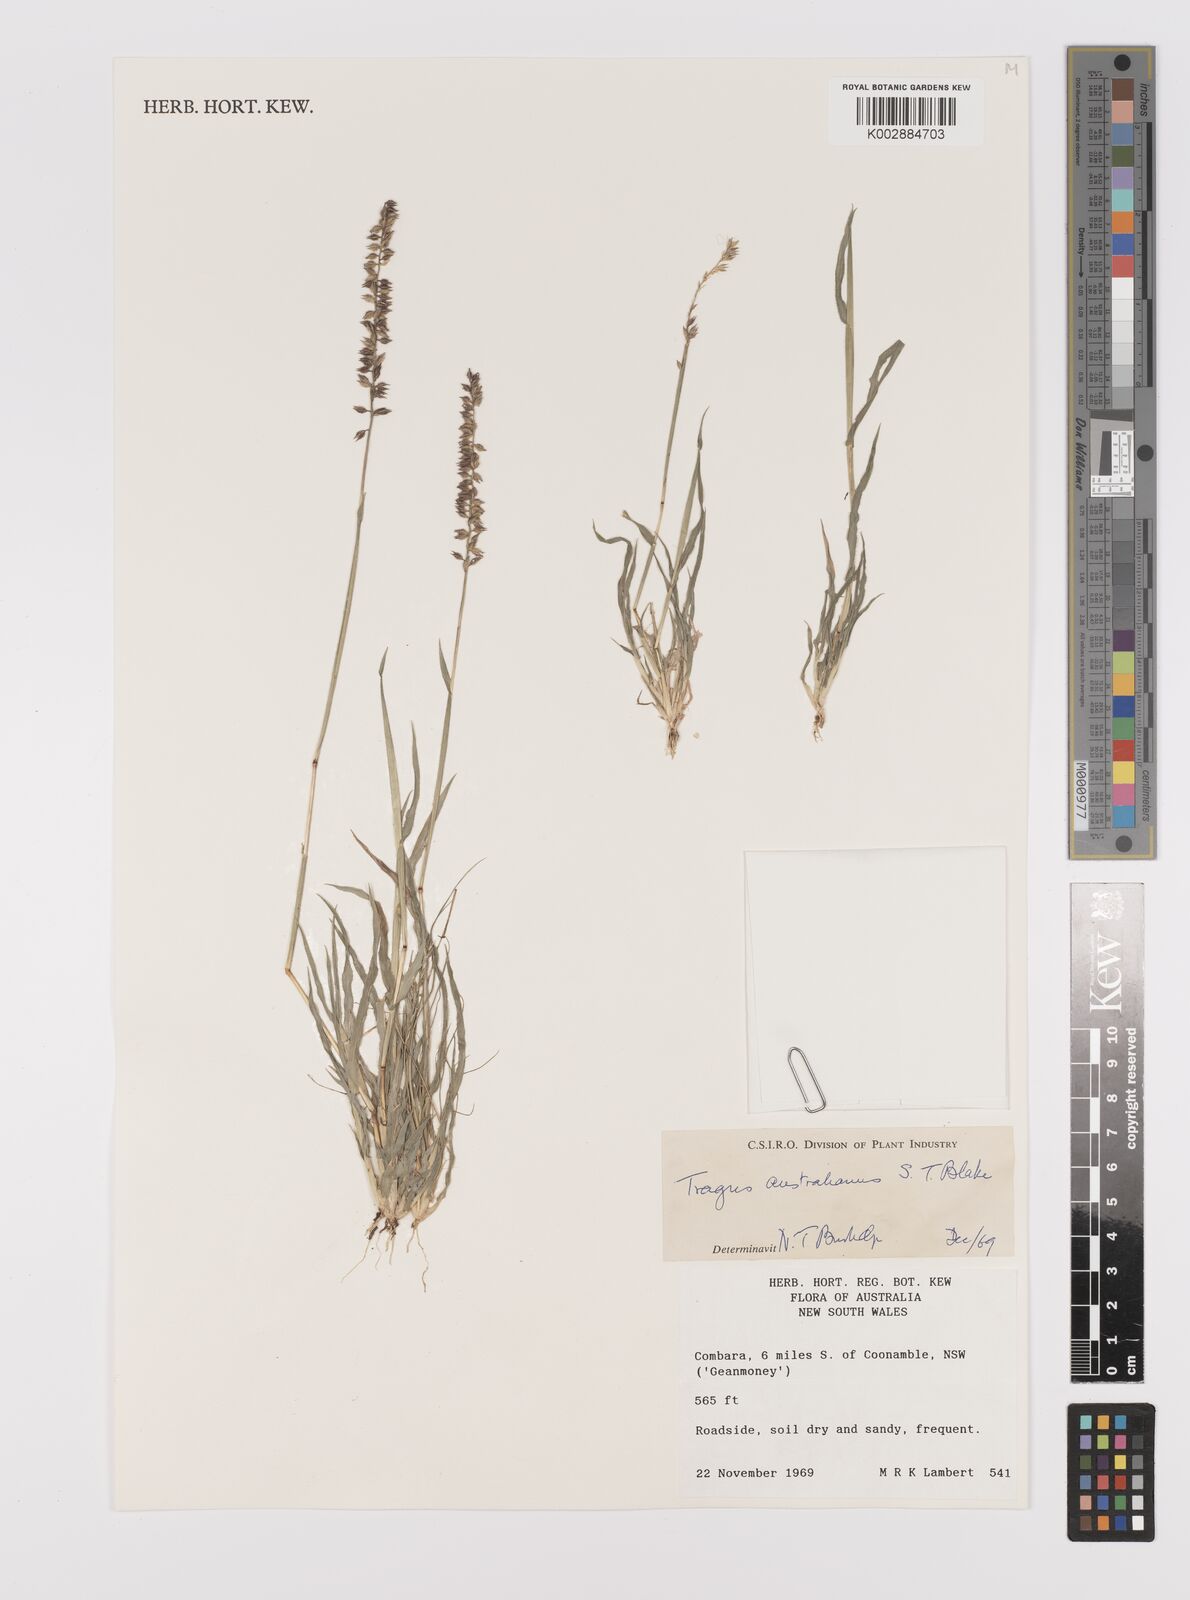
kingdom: Plantae
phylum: Tracheophyta
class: Liliopsida
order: Poales
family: Poaceae
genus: Tragus
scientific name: Tragus australianus
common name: Australian bur-grass
